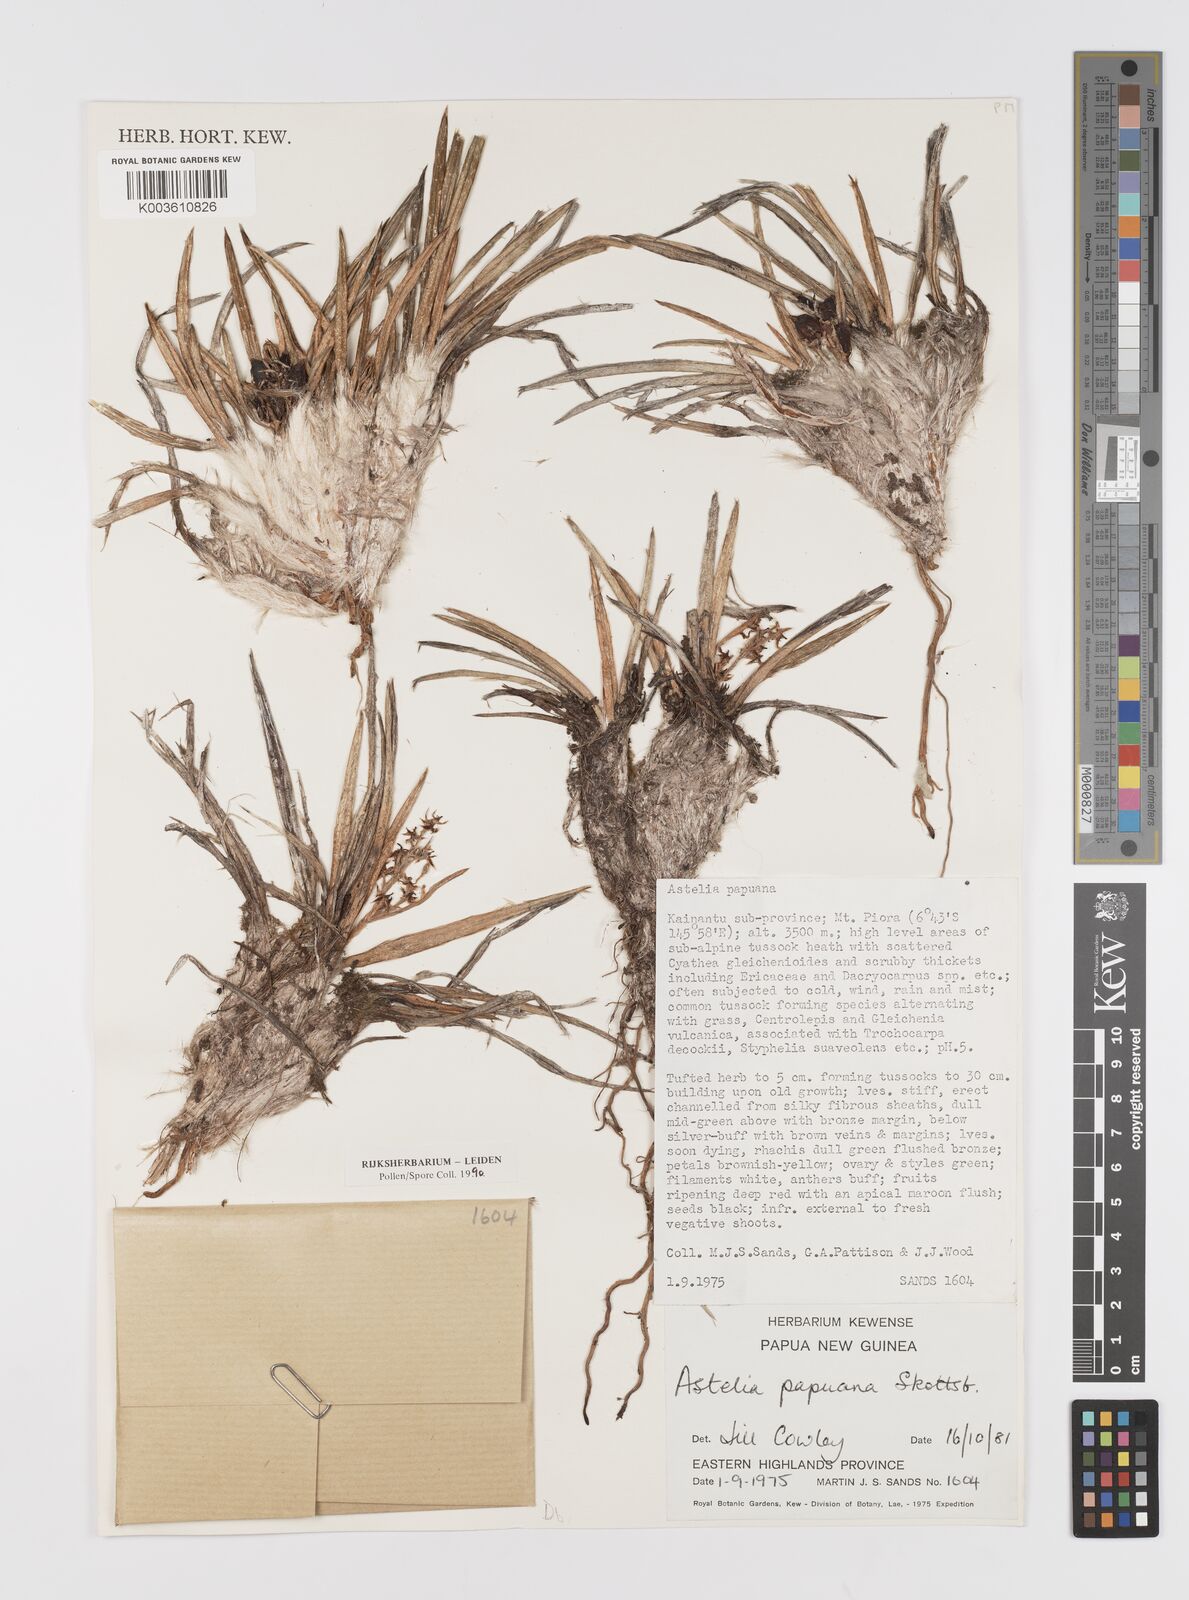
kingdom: Plantae
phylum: Tracheophyta
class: Liliopsida
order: Asparagales
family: Asteliaceae
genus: Astelia
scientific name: Astelia papuana
